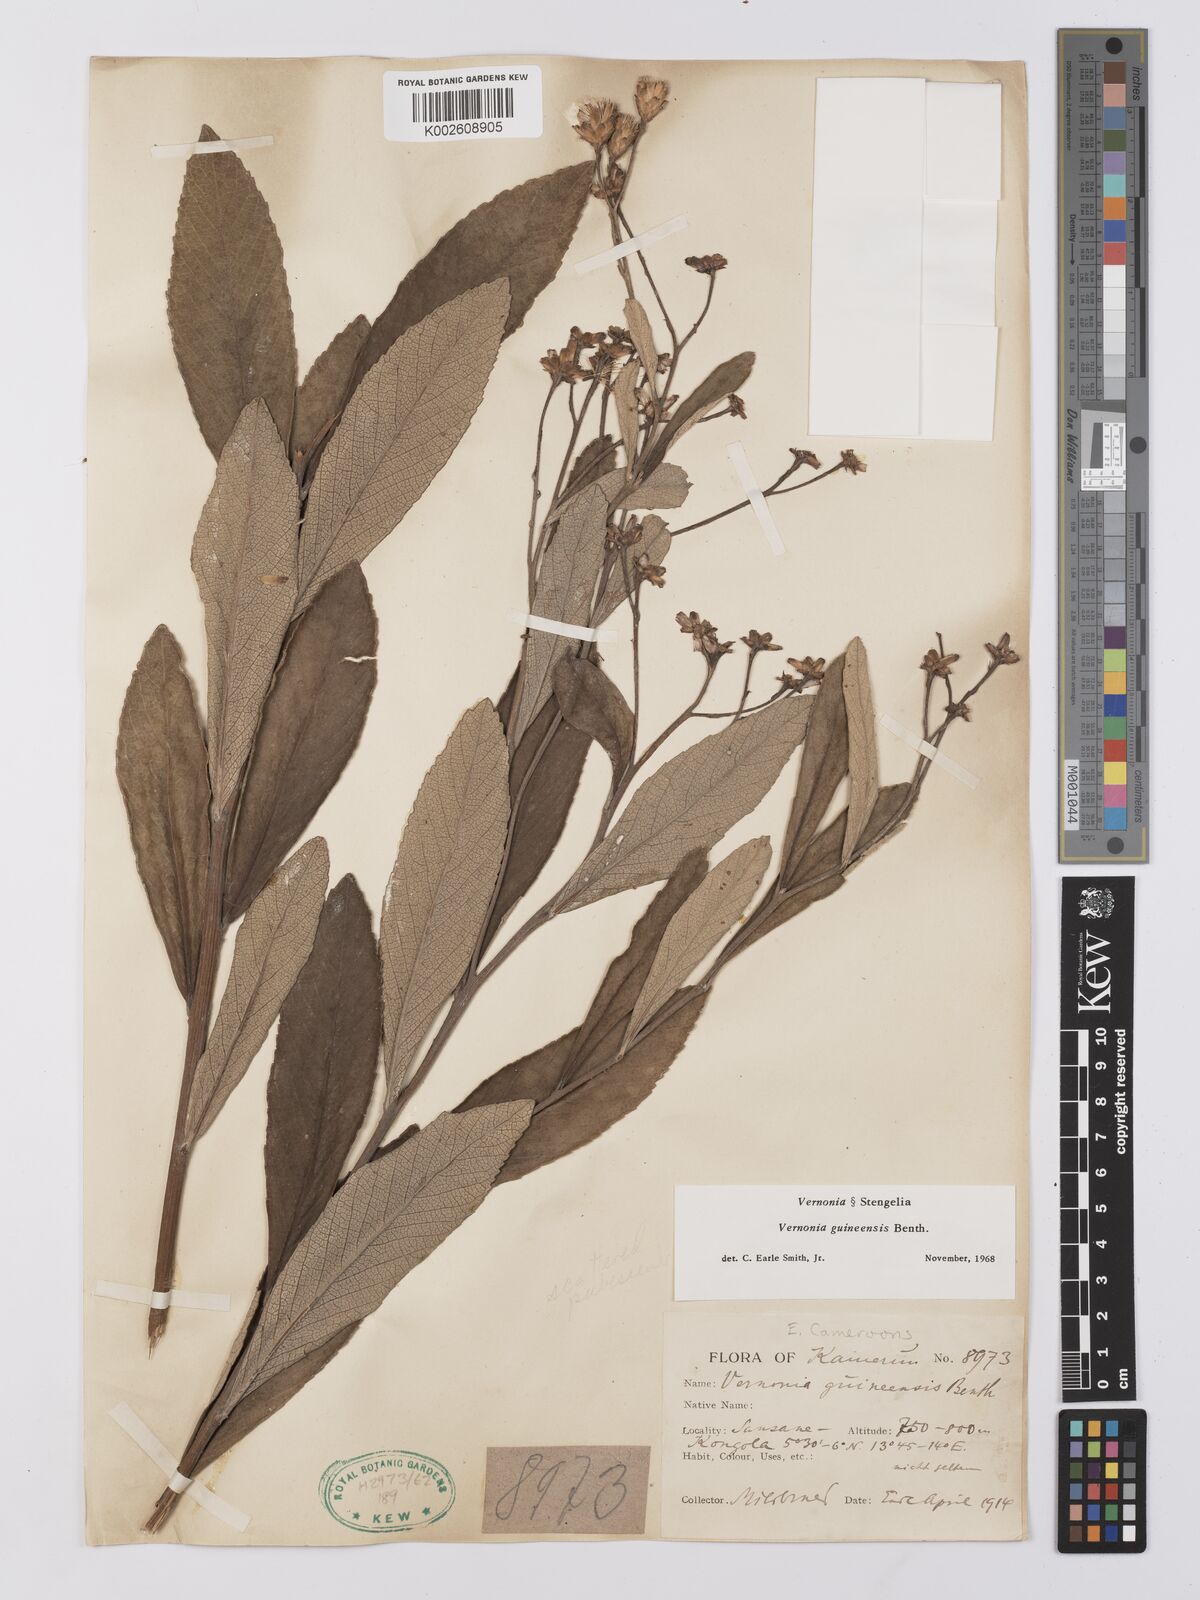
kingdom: Plantae
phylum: Tracheophyta
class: Magnoliopsida
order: Asterales
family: Asteraceae
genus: Baccharoides
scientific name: Baccharoides guineensis
